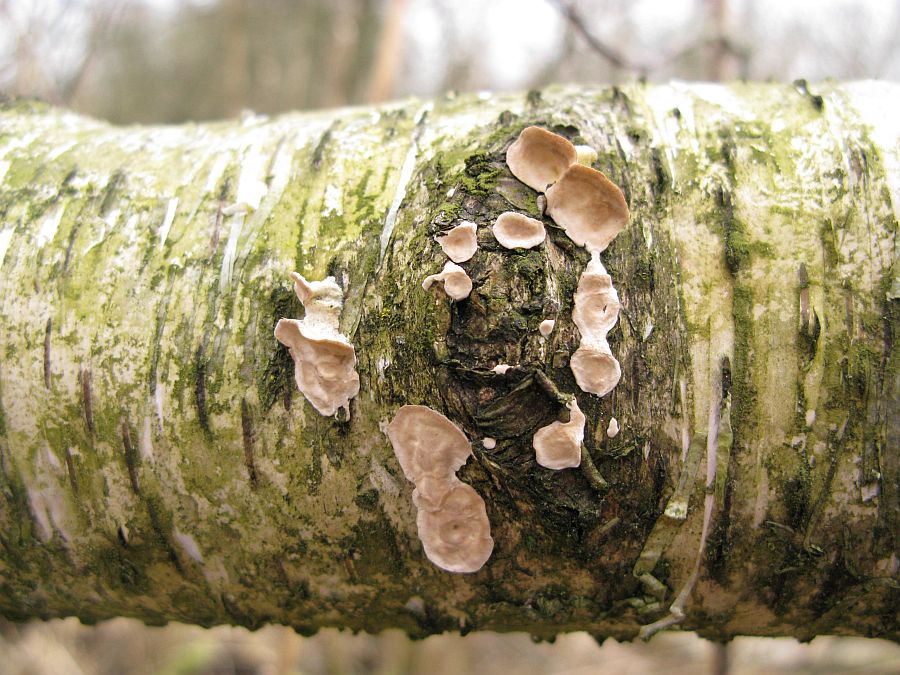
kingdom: Fungi
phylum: Basidiomycota
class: Agaricomycetes
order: Russulales
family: Stereaceae
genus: Stereum
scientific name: Stereum rugosum
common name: rynket lædersvamp
